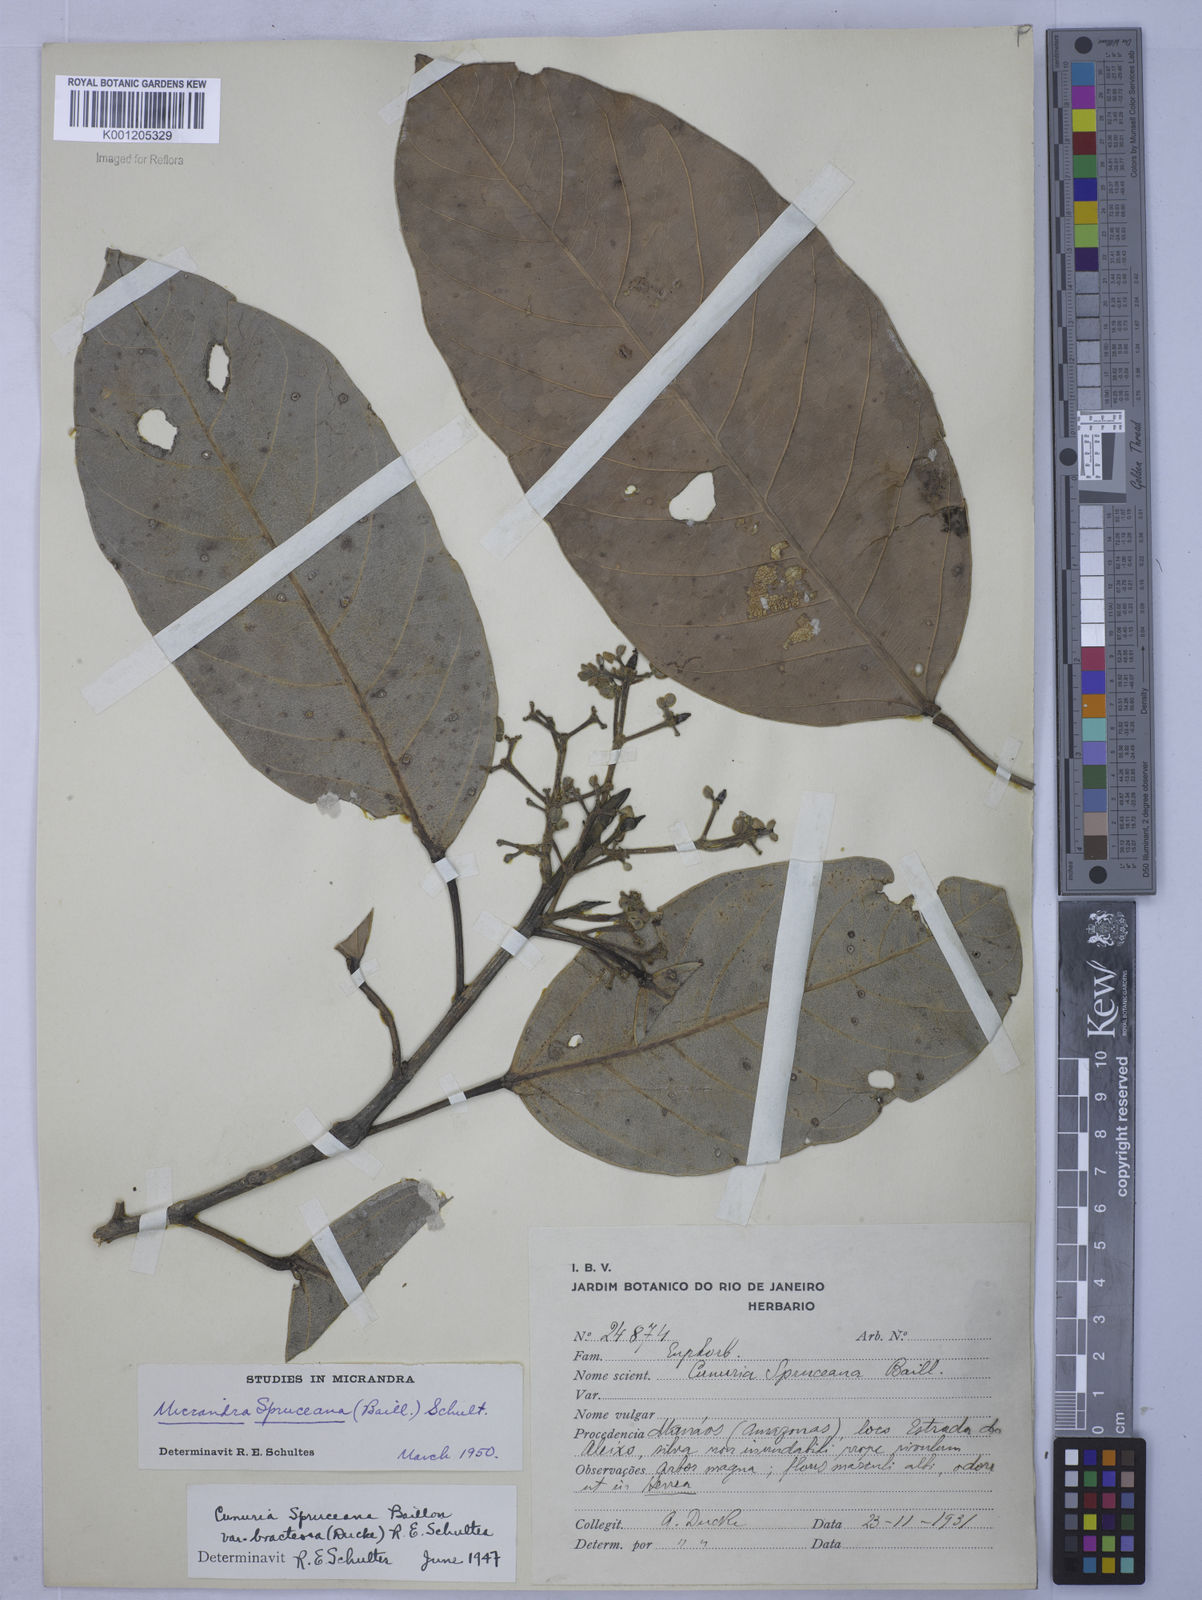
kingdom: Plantae
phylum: Tracheophyta
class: Magnoliopsida
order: Malpighiales
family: Euphorbiaceae
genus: Micrandra
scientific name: Micrandra spruceana
